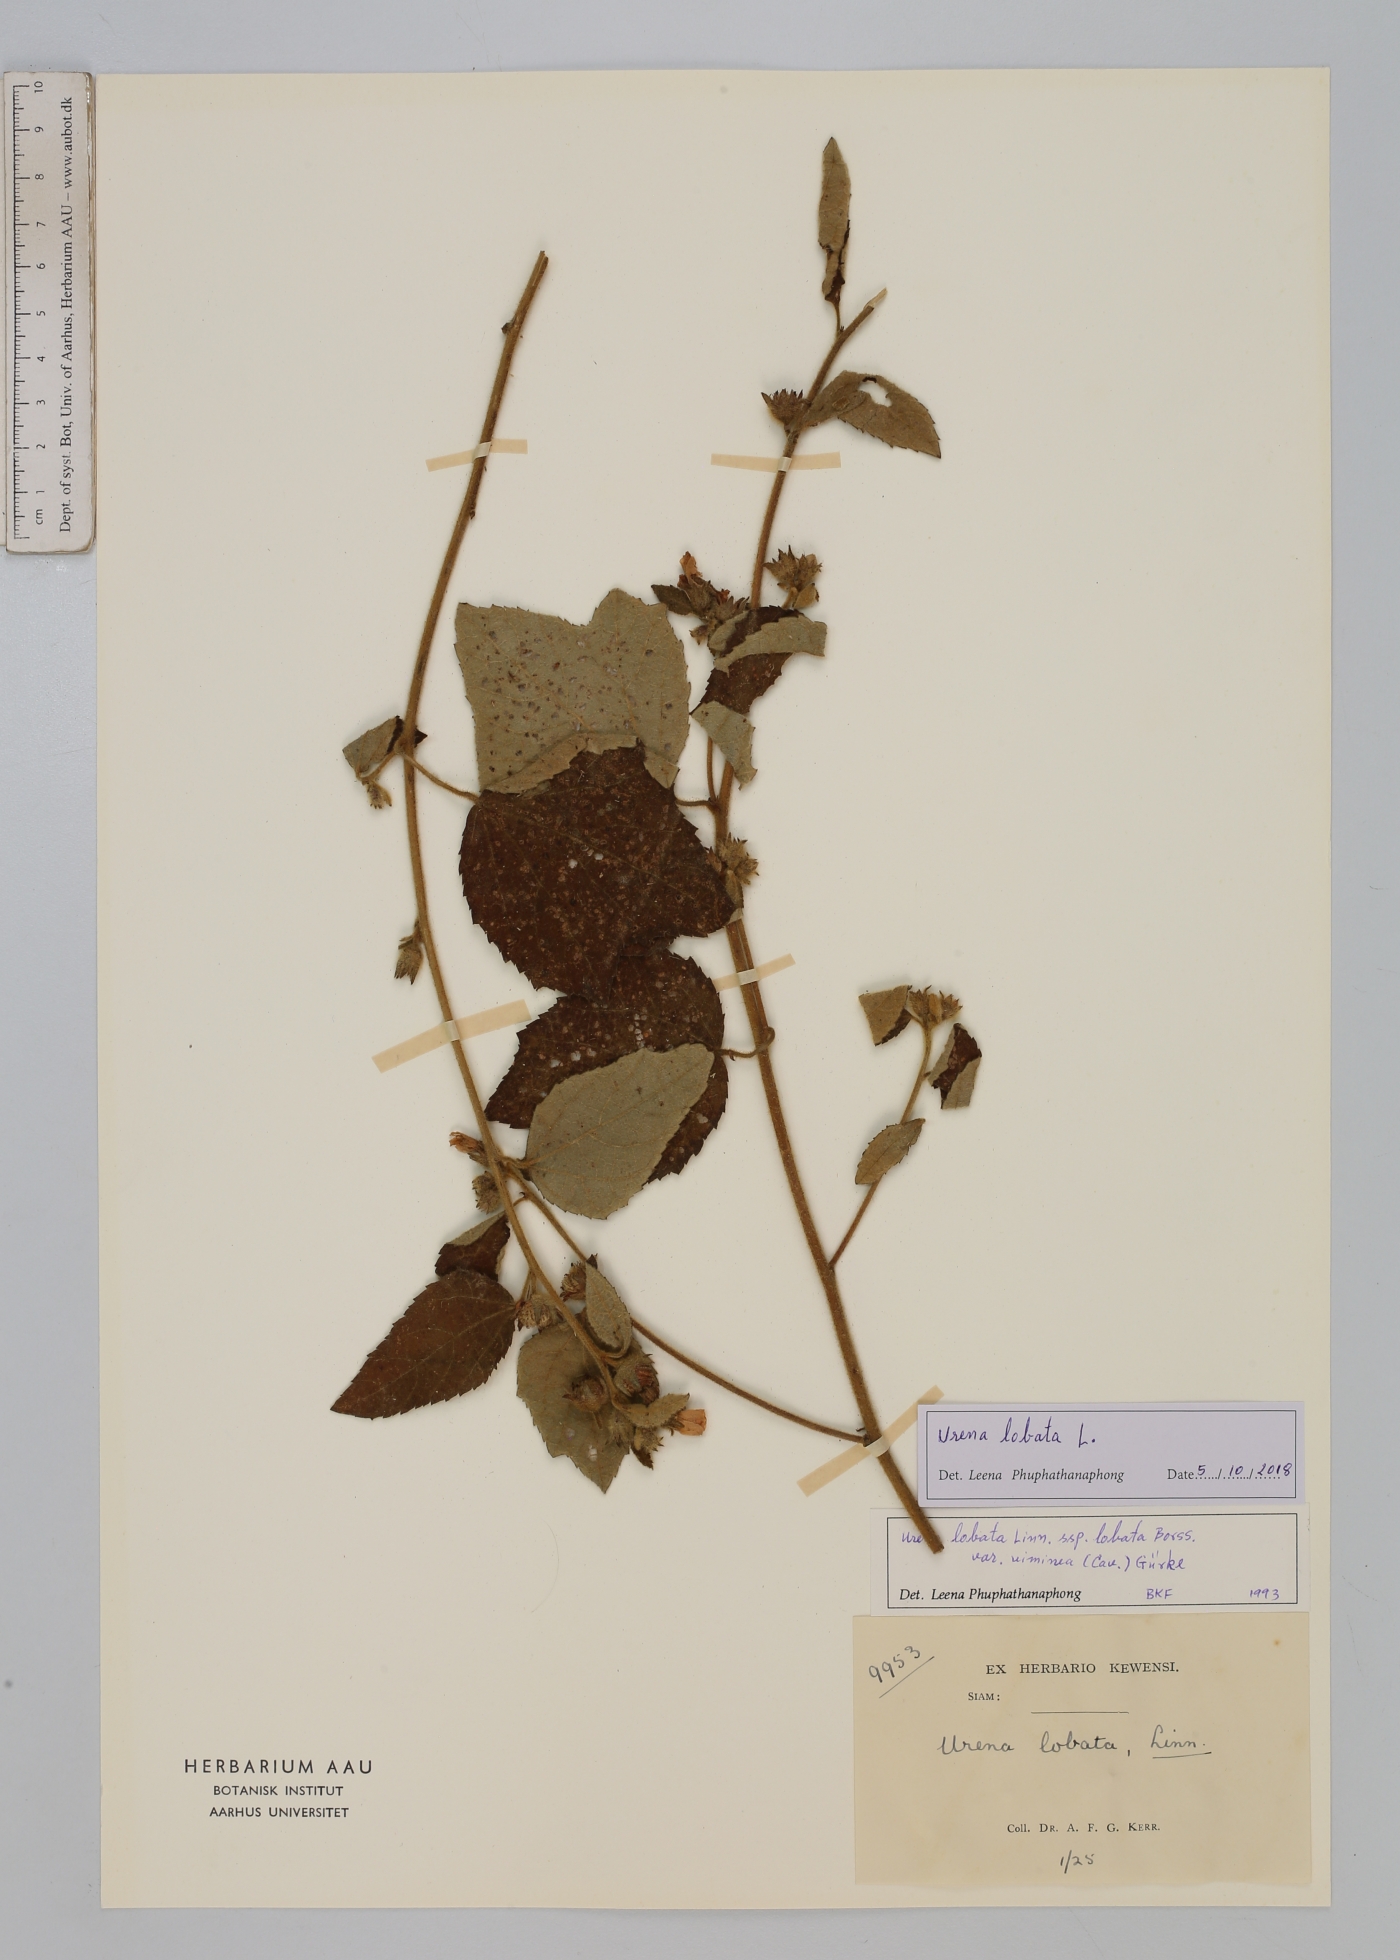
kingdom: Plantae
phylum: Tracheophyta
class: Magnoliopsida
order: Malvales
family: Malvaceae
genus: Urena
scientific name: Urena lobata
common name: Caesarweed
